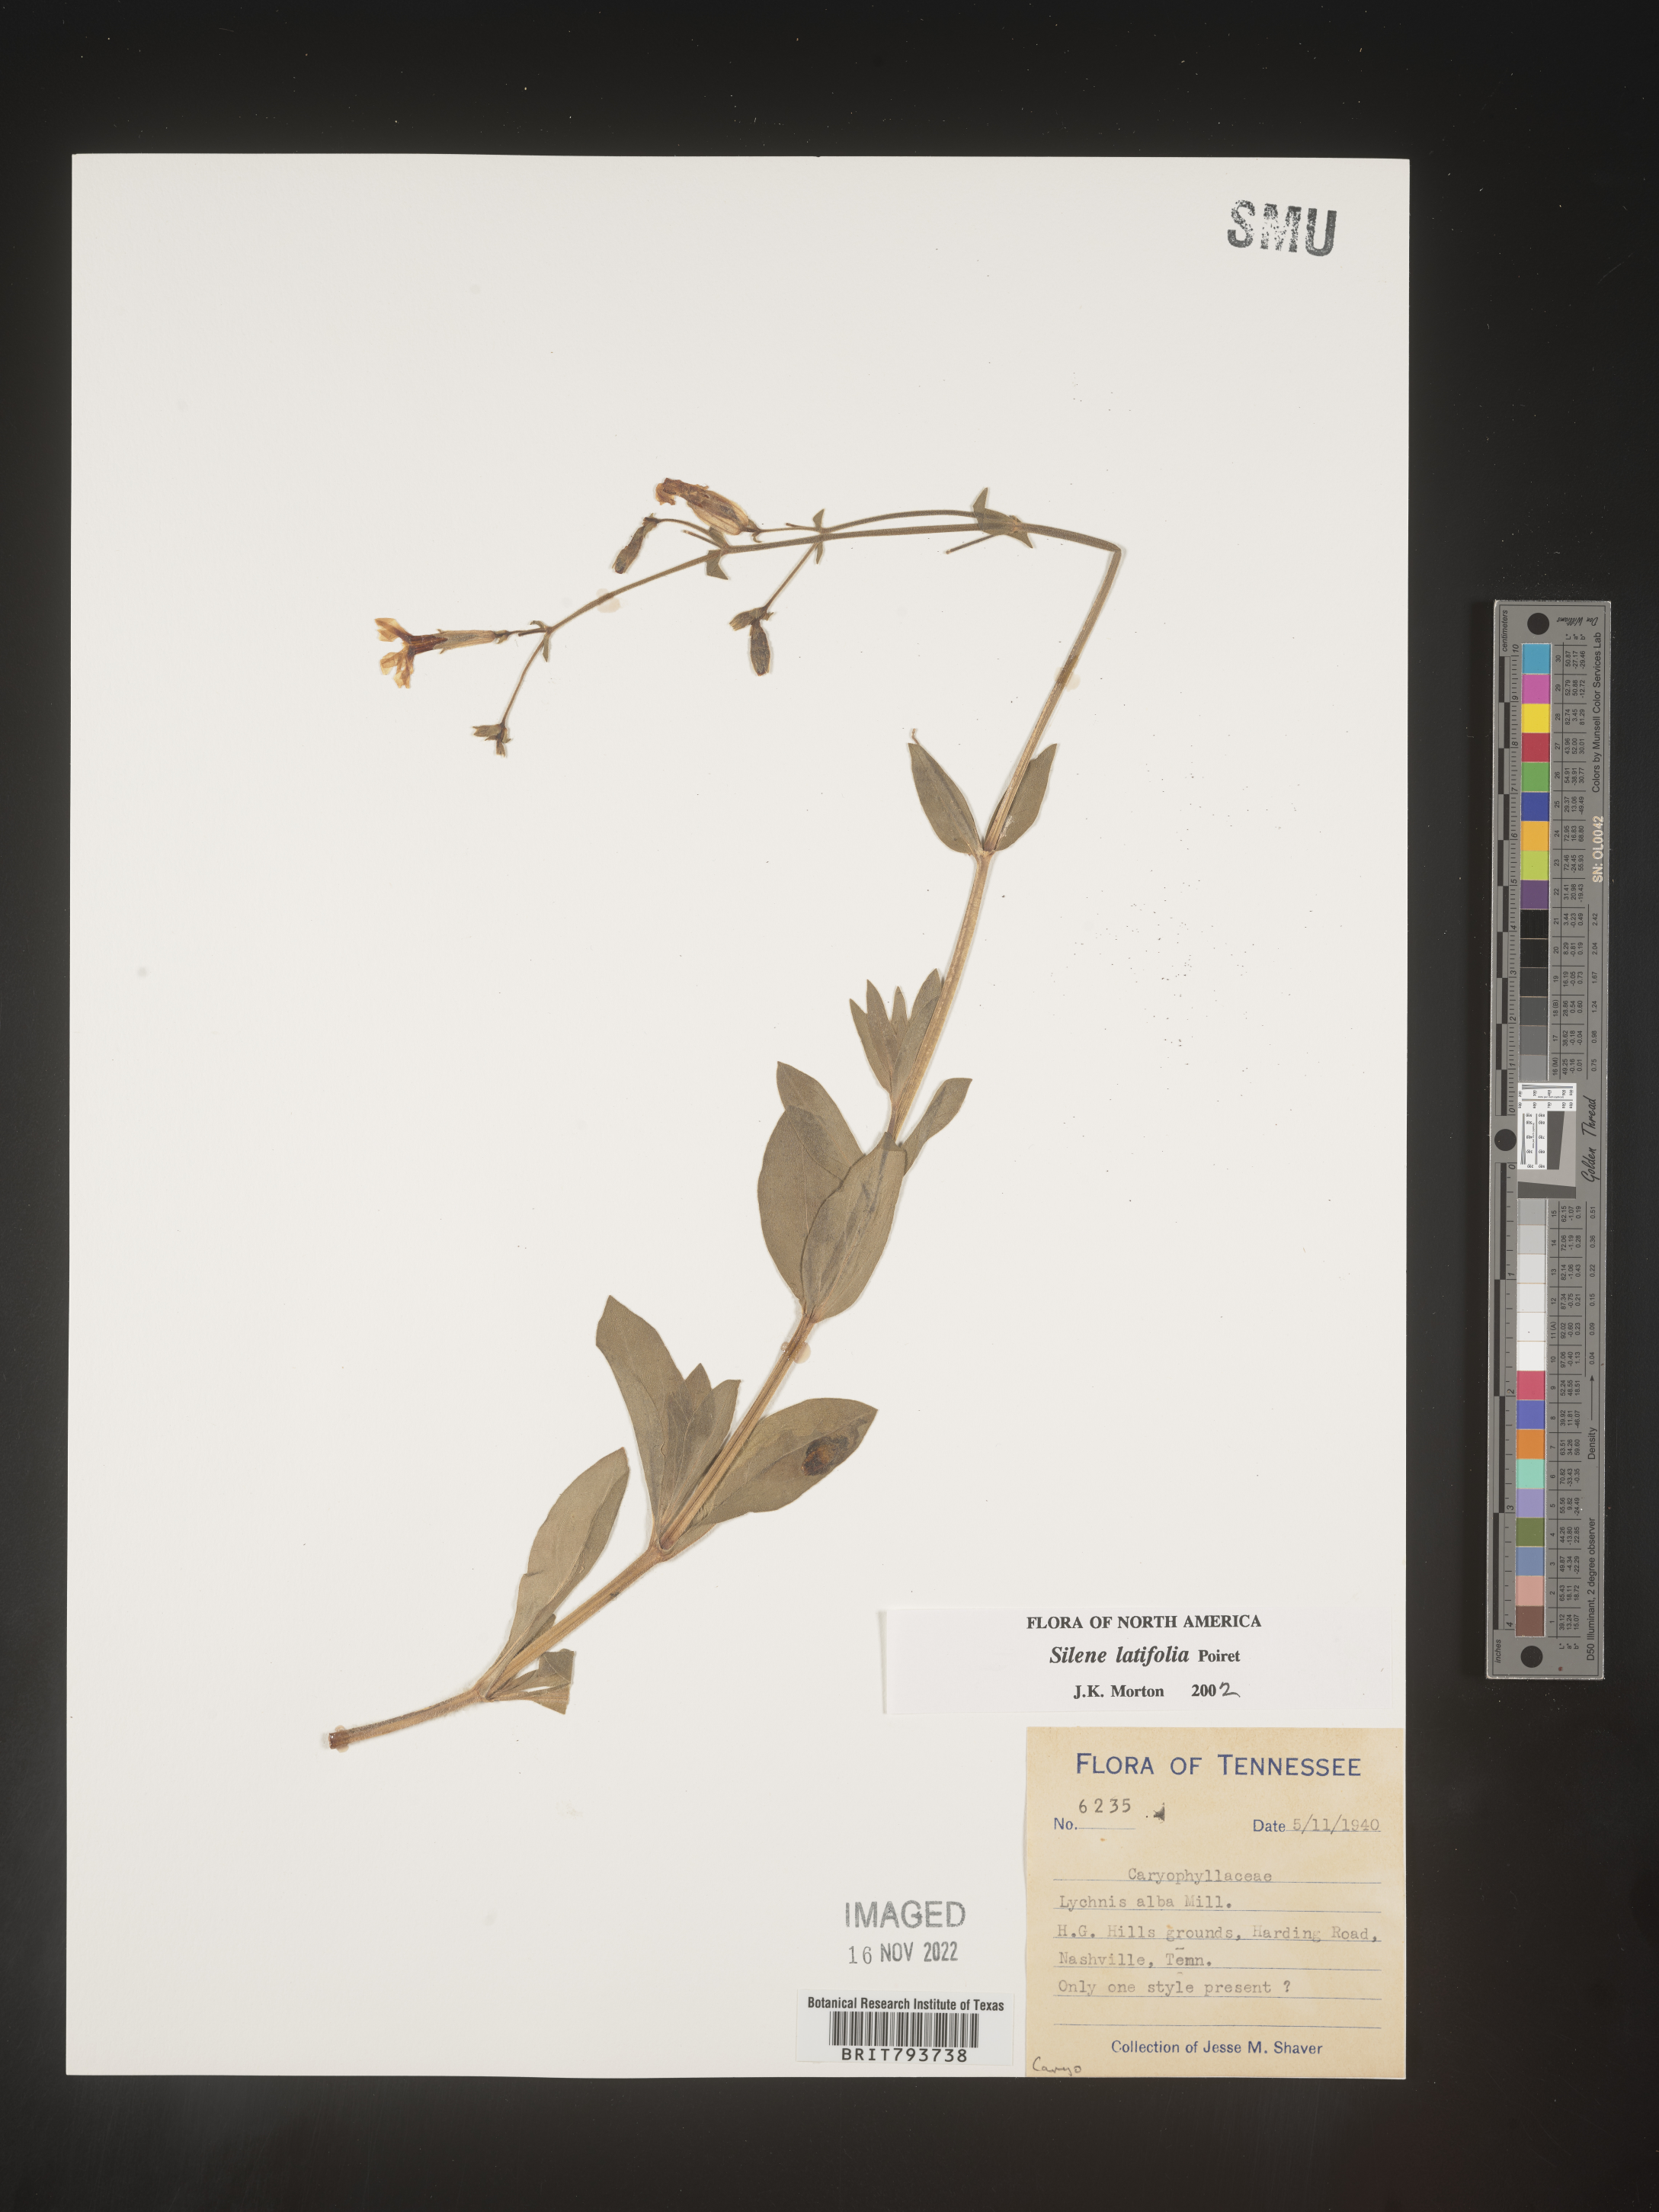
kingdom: Plantae
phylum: Tracheophyta
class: Magnoliopsida
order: Caryophyllales
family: Caryophyllaceae
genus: Silene
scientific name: Silene latifolia
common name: White campion
